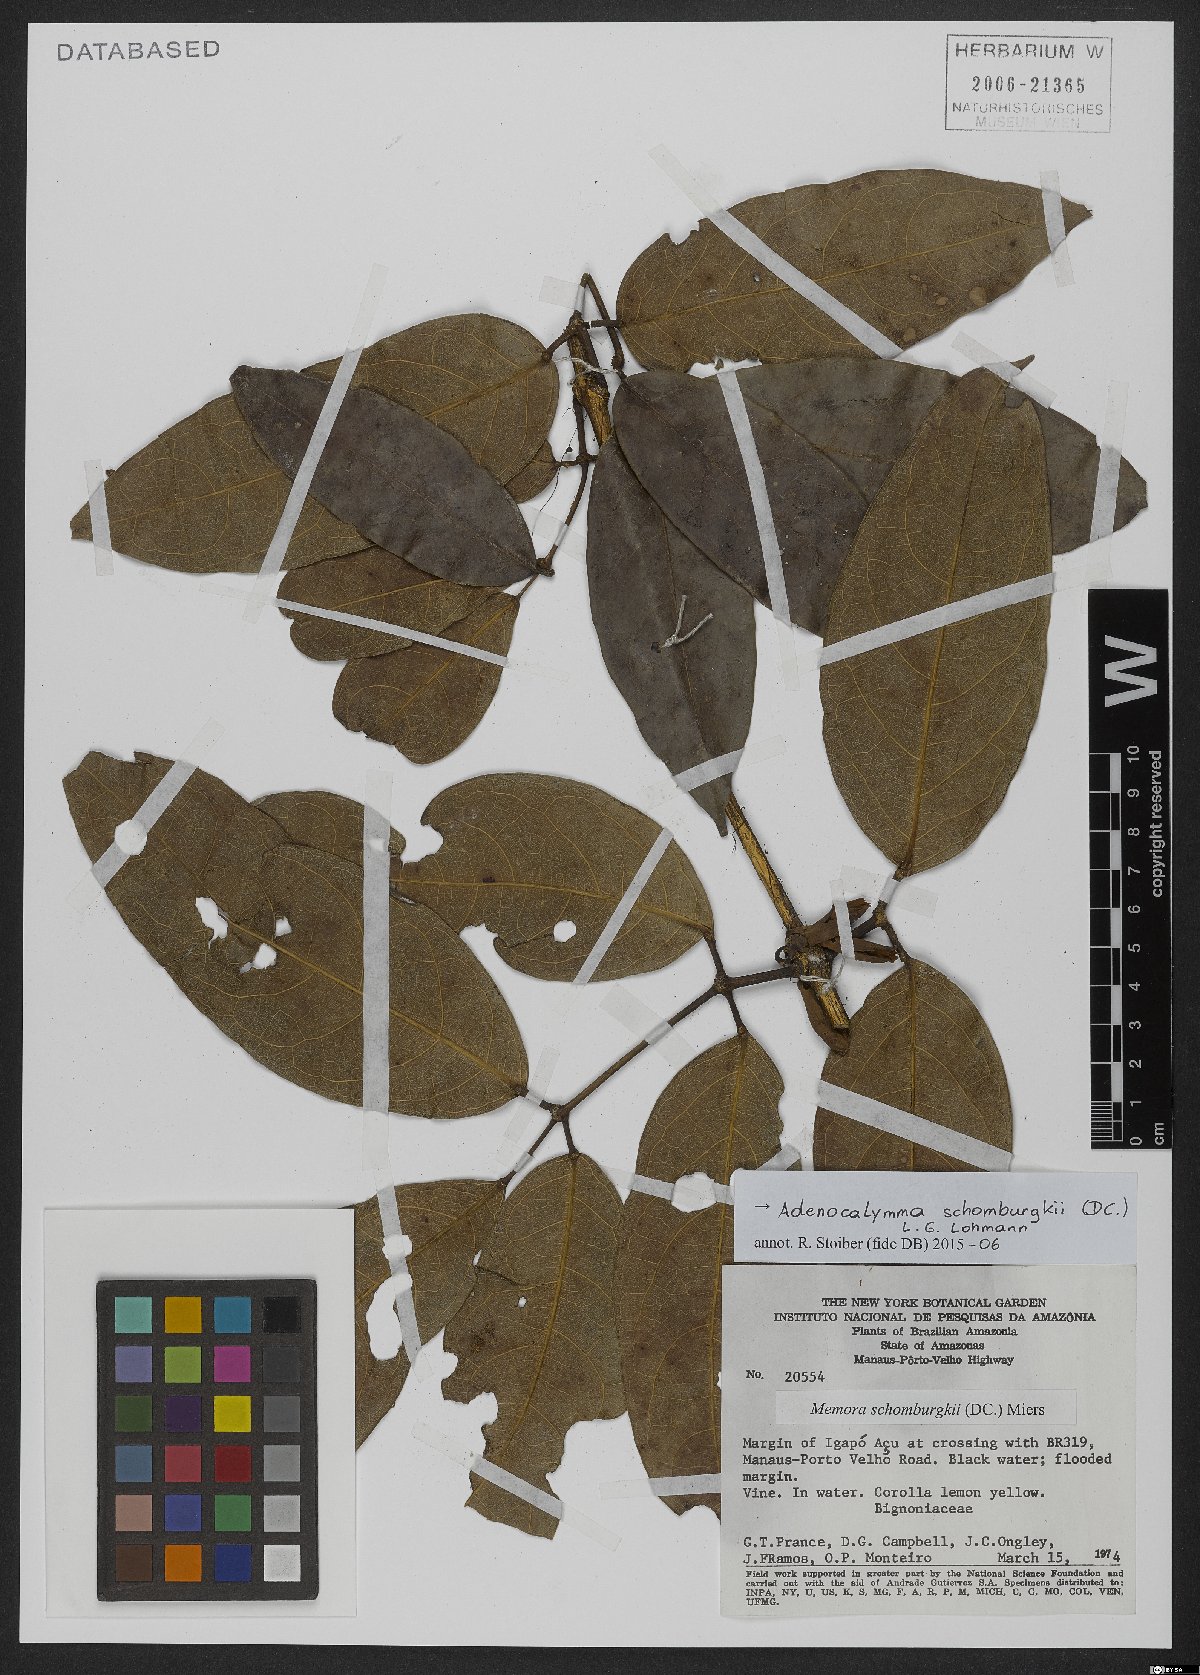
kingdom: Plantae
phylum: Tracheophyta
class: Magnoliopsida
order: Lamiales
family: Bignoniaceae
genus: Adenocalymma
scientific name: Adenocalymma schomburgkii
